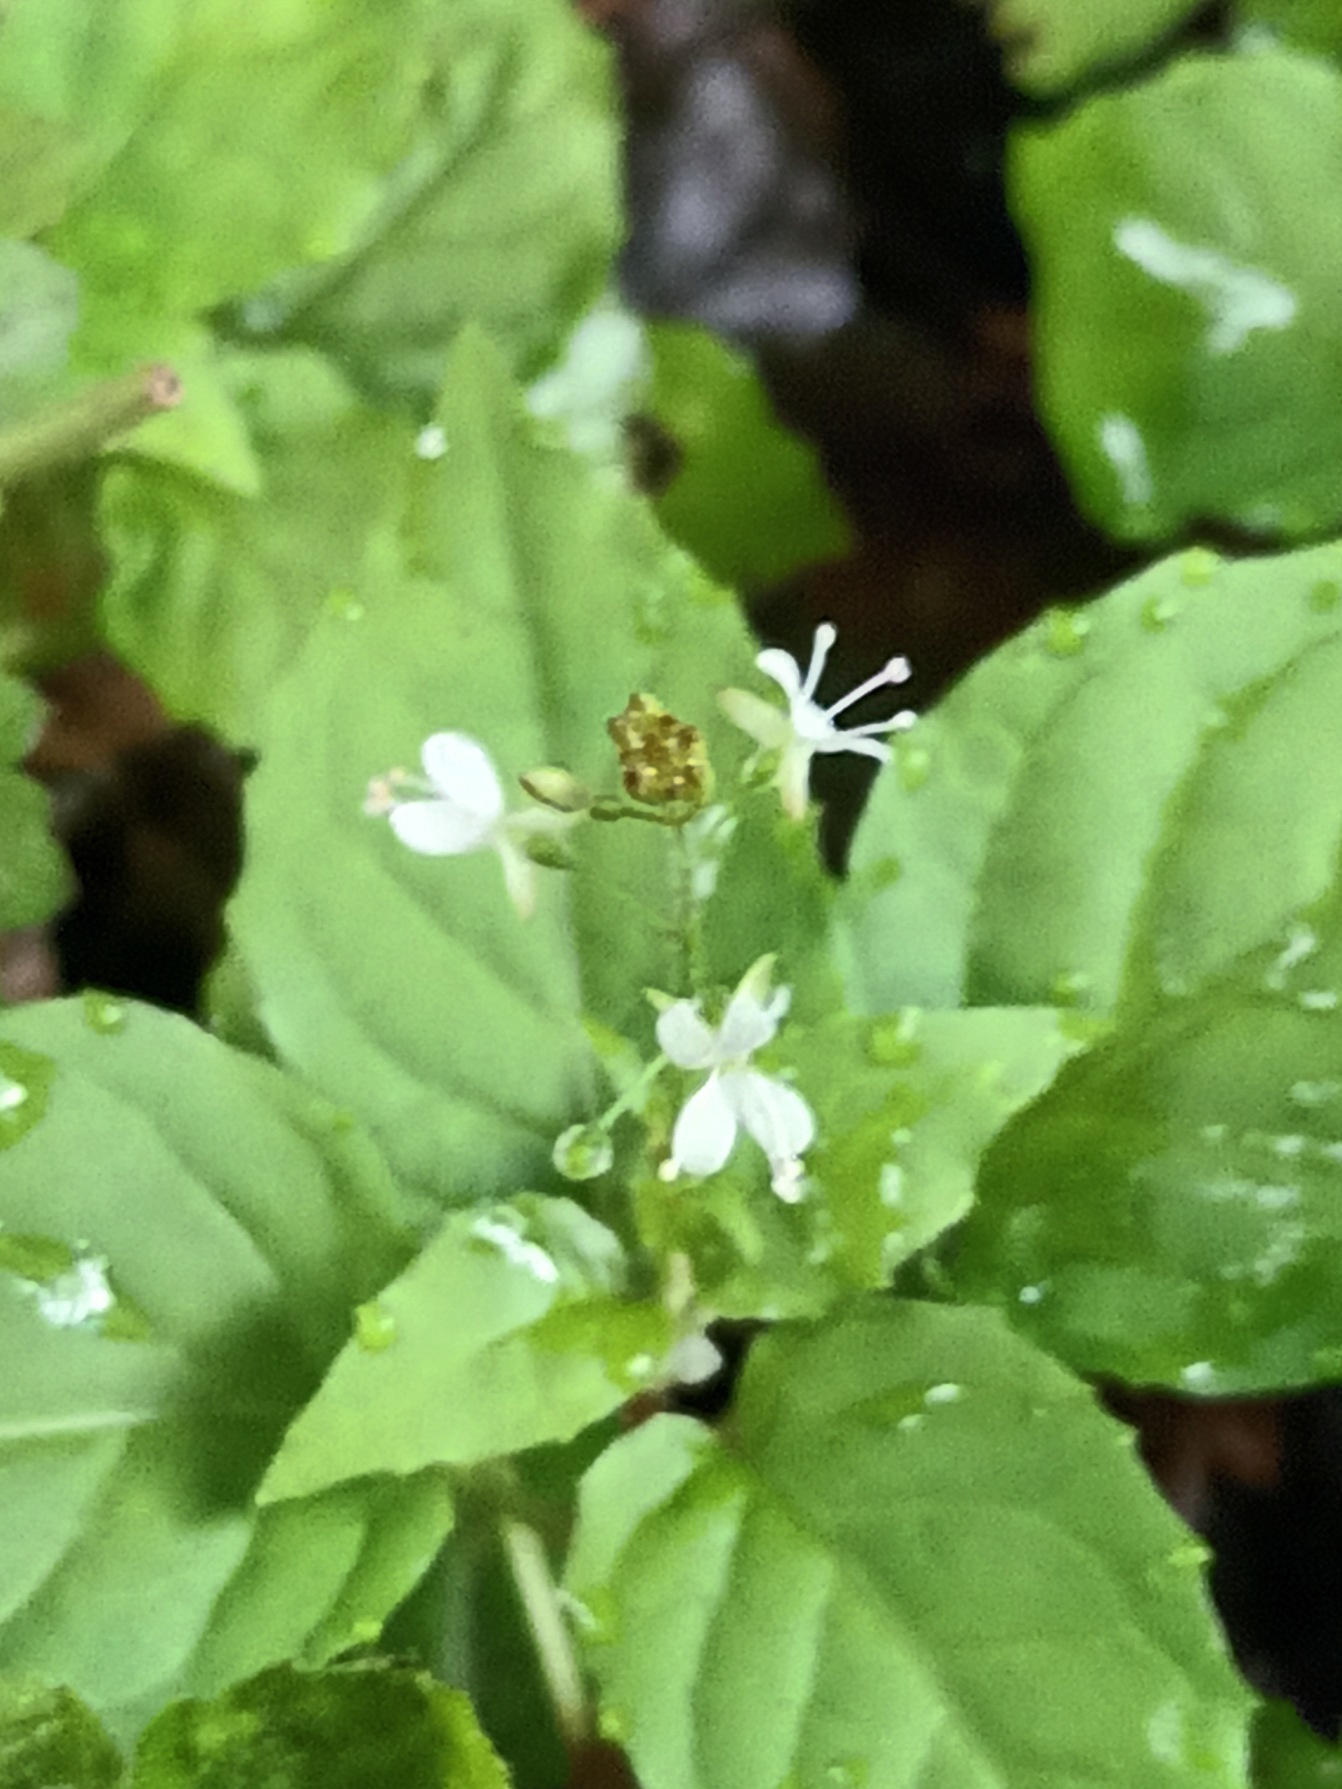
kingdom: Plantae
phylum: Tracheophyta
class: Magnoliopsida
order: Myrtales
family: Onagraceae
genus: Circaea
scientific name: Circaea intermedia
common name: Spidsbladet steffensurt
